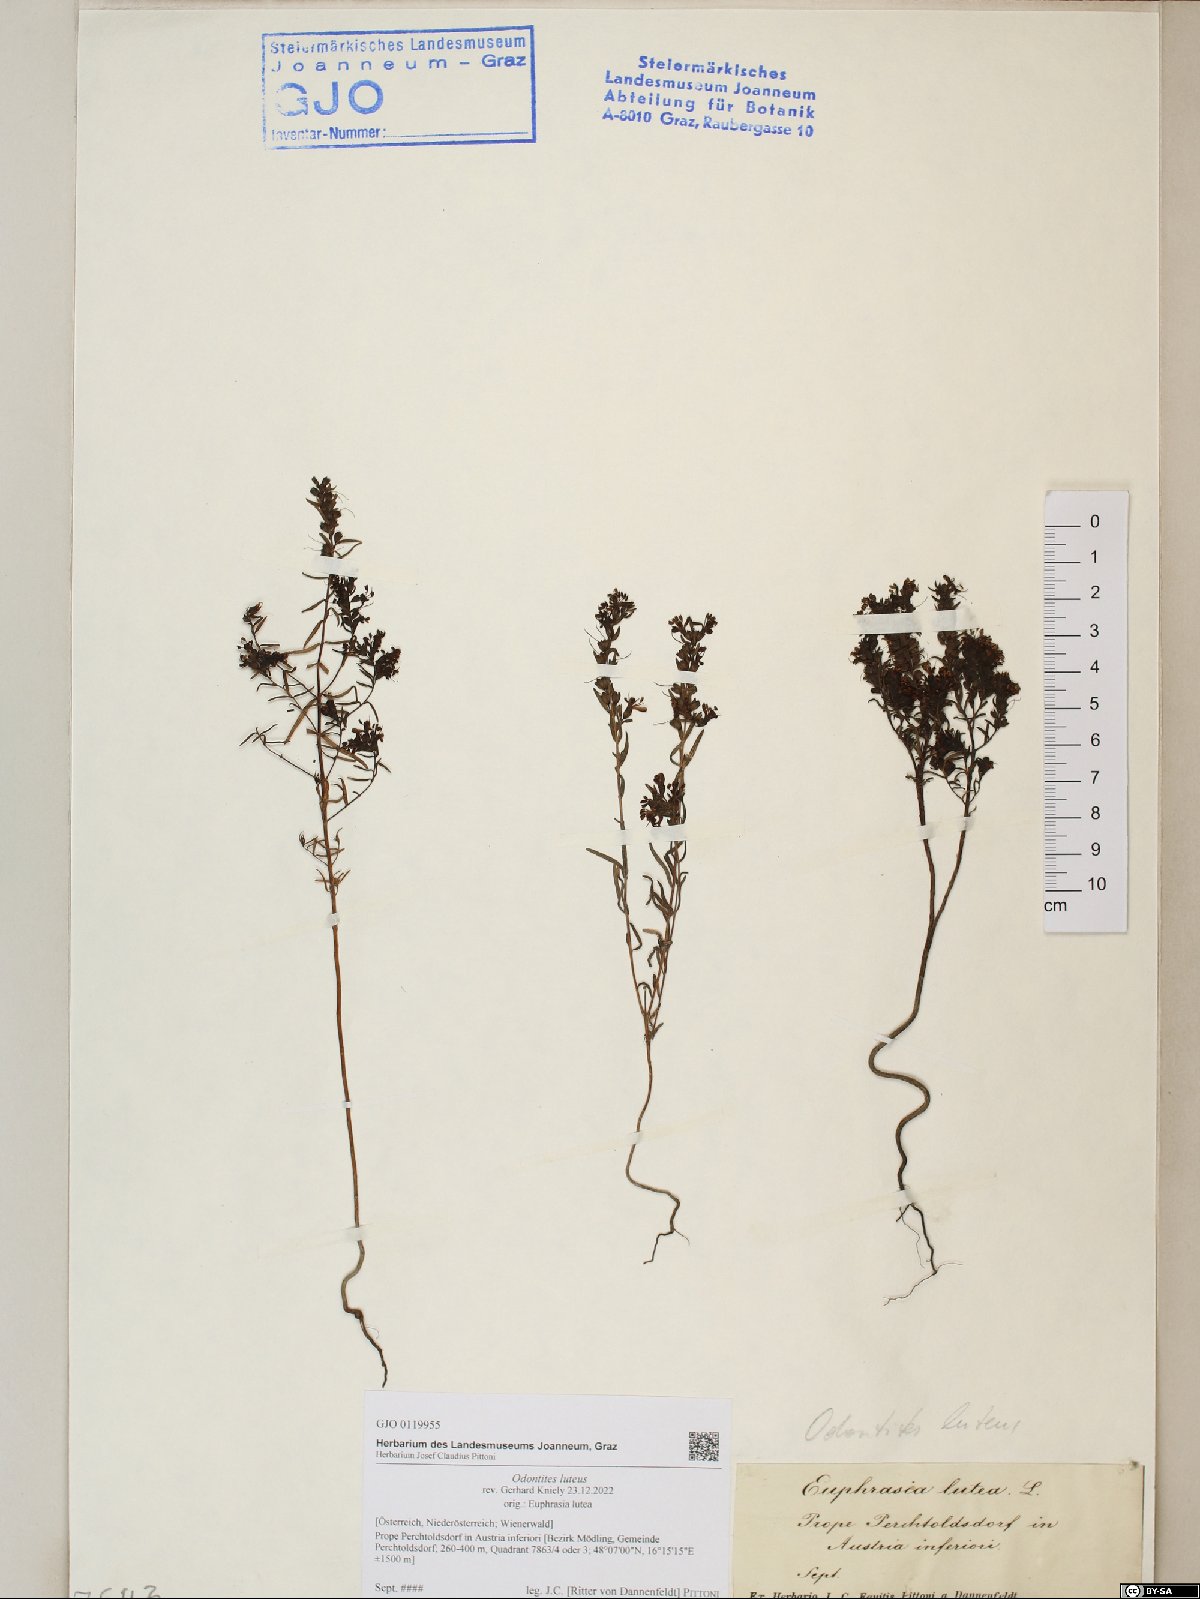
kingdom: Plantae
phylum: Tracheophyta
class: Magnoliopsida
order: Lamiales
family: Orobanchaceae
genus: Odontites
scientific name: Odontites luteus
